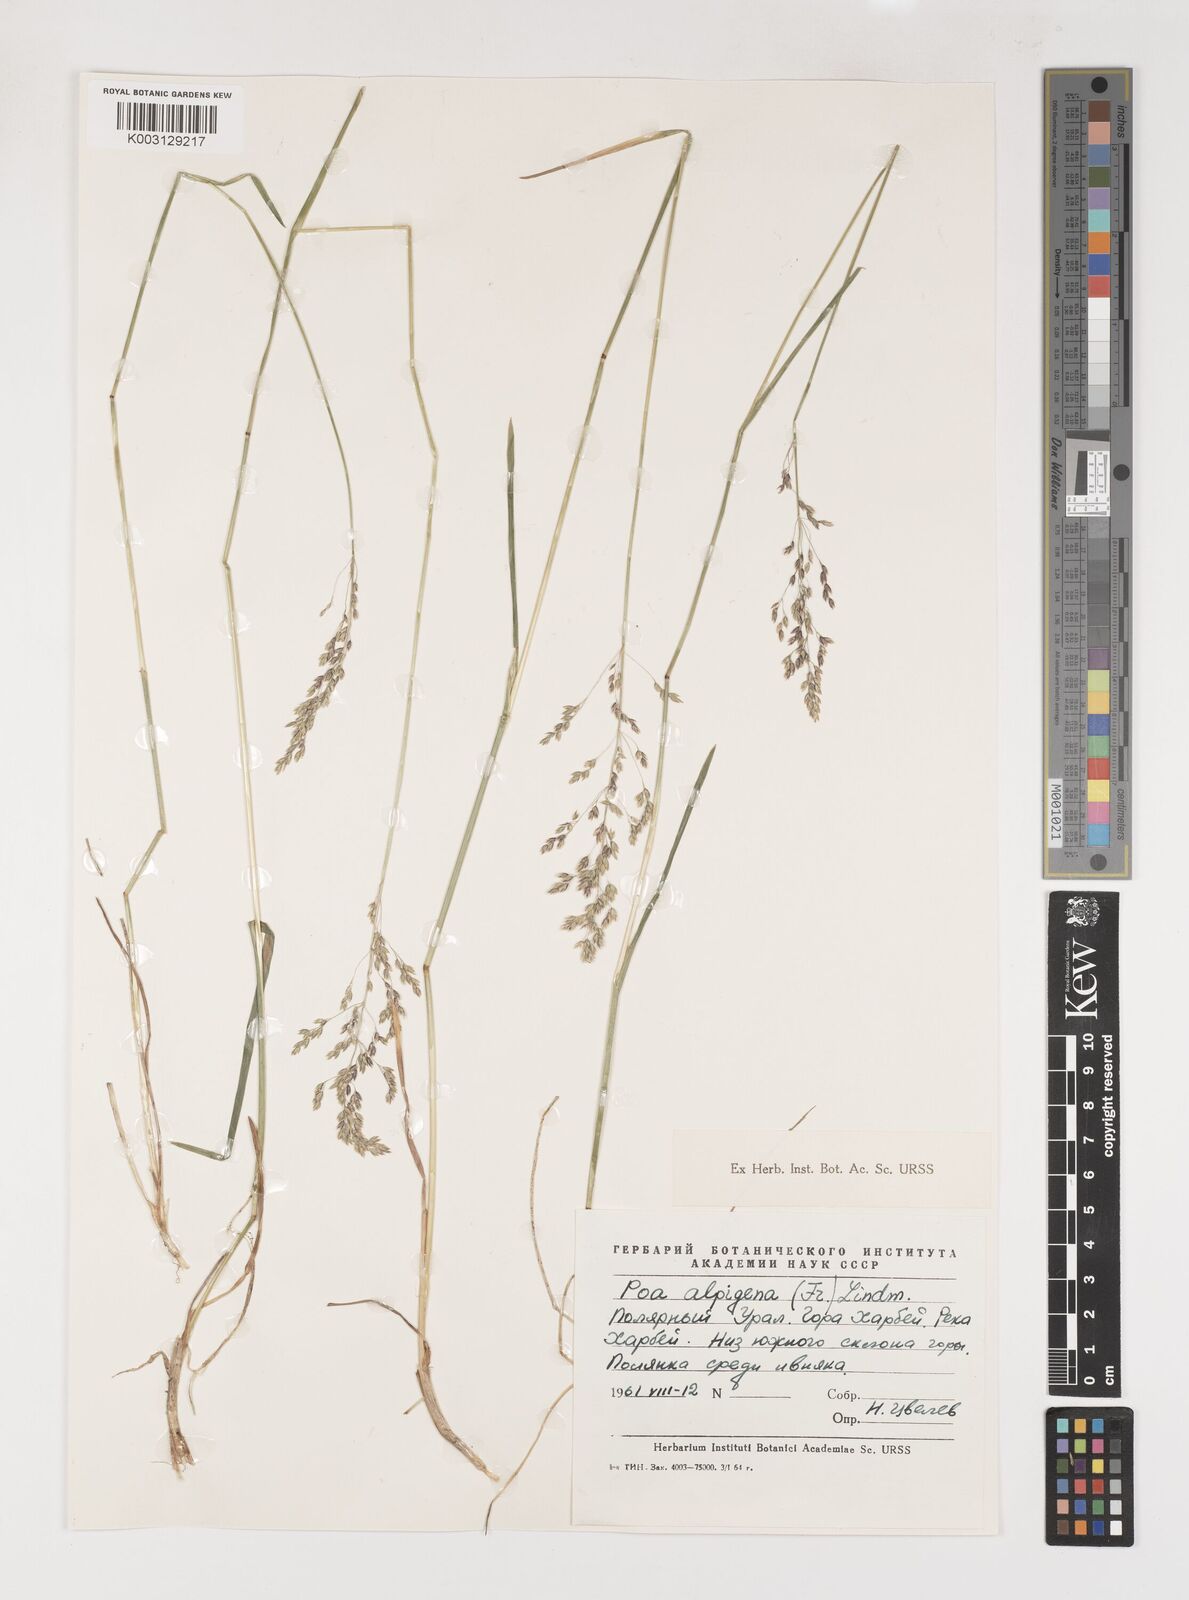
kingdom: Plantae
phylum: Tracheophyta
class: Liliopsida
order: Poales
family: Poaceae
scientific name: Poaceae
